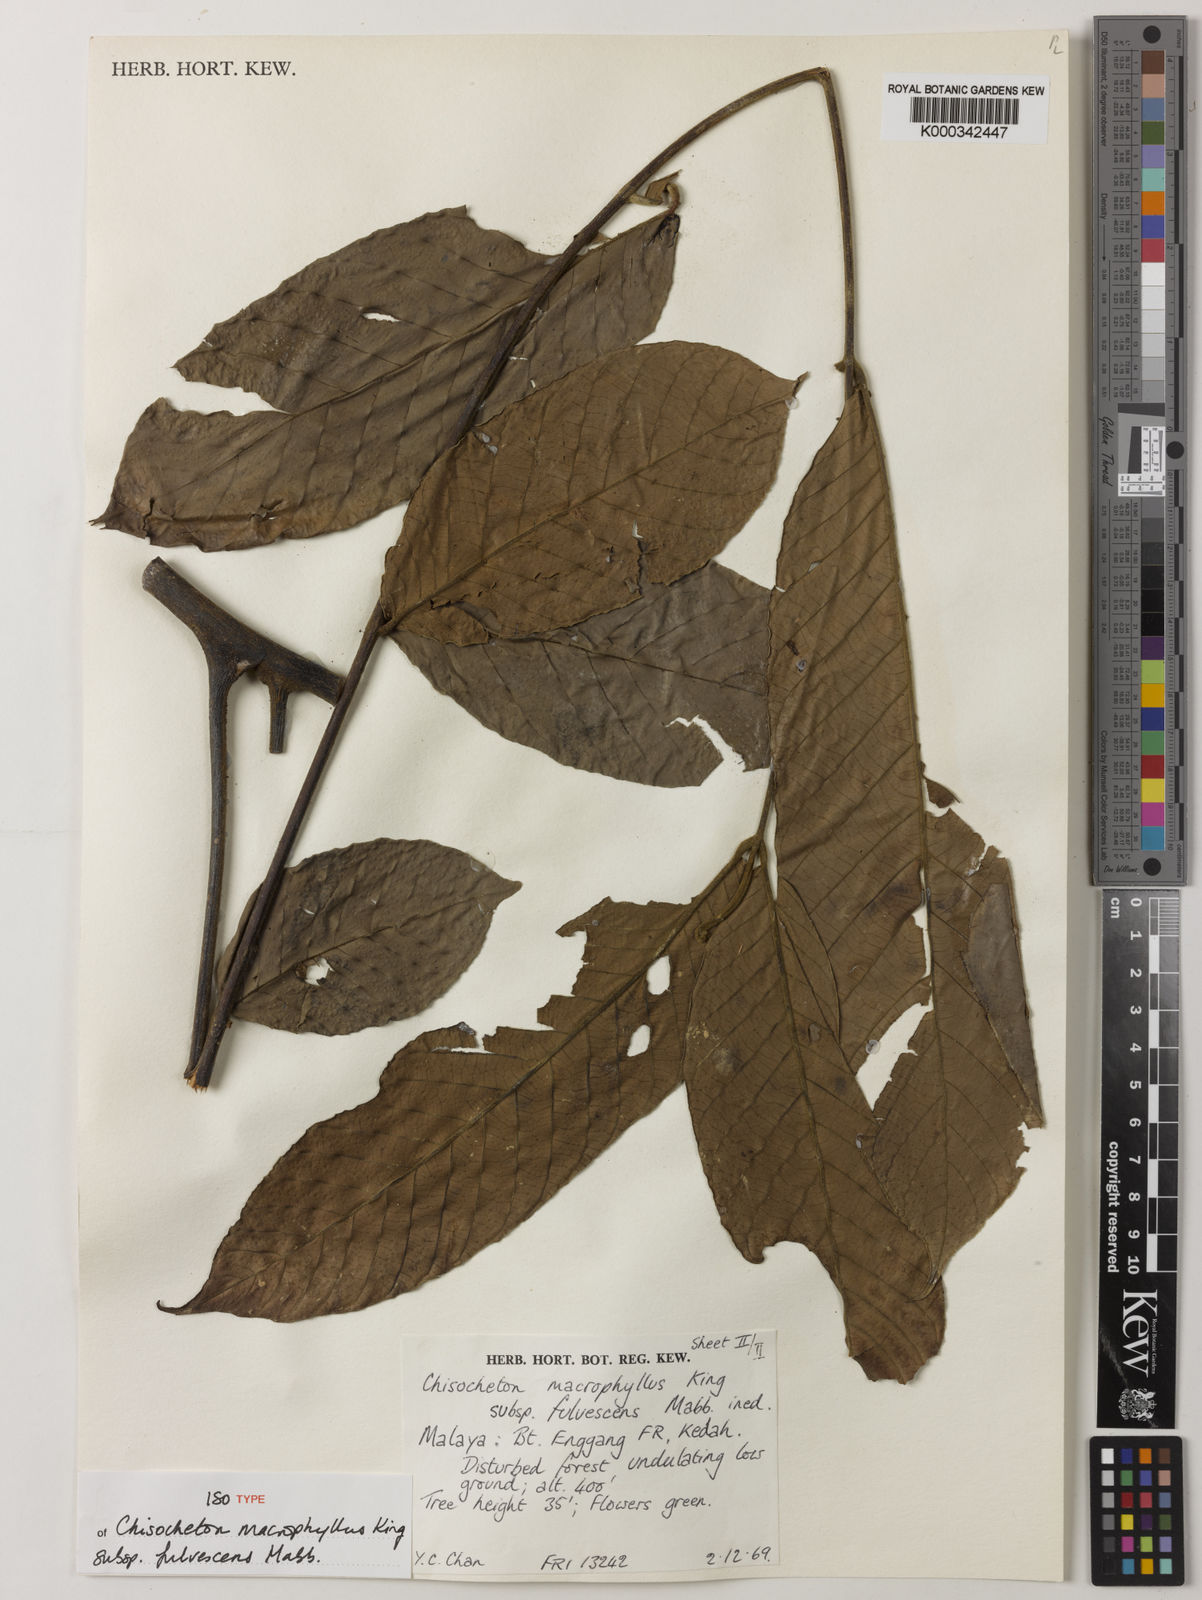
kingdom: Plantae
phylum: Tracheophyta
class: Magnoliopsida
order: Sapindales
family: Meliaceae
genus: Chisocheton
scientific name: Chisocheton macrophyllus
